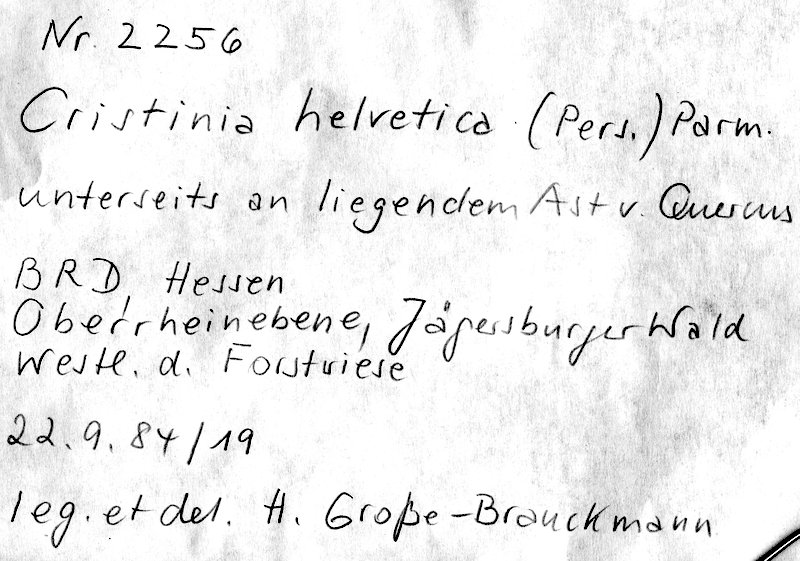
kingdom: Fungi
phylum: Basidiomycota
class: Agaricomycetes
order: Agaricales
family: Stephanosporaceae
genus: Cristinia
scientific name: Cristinia helvetica
